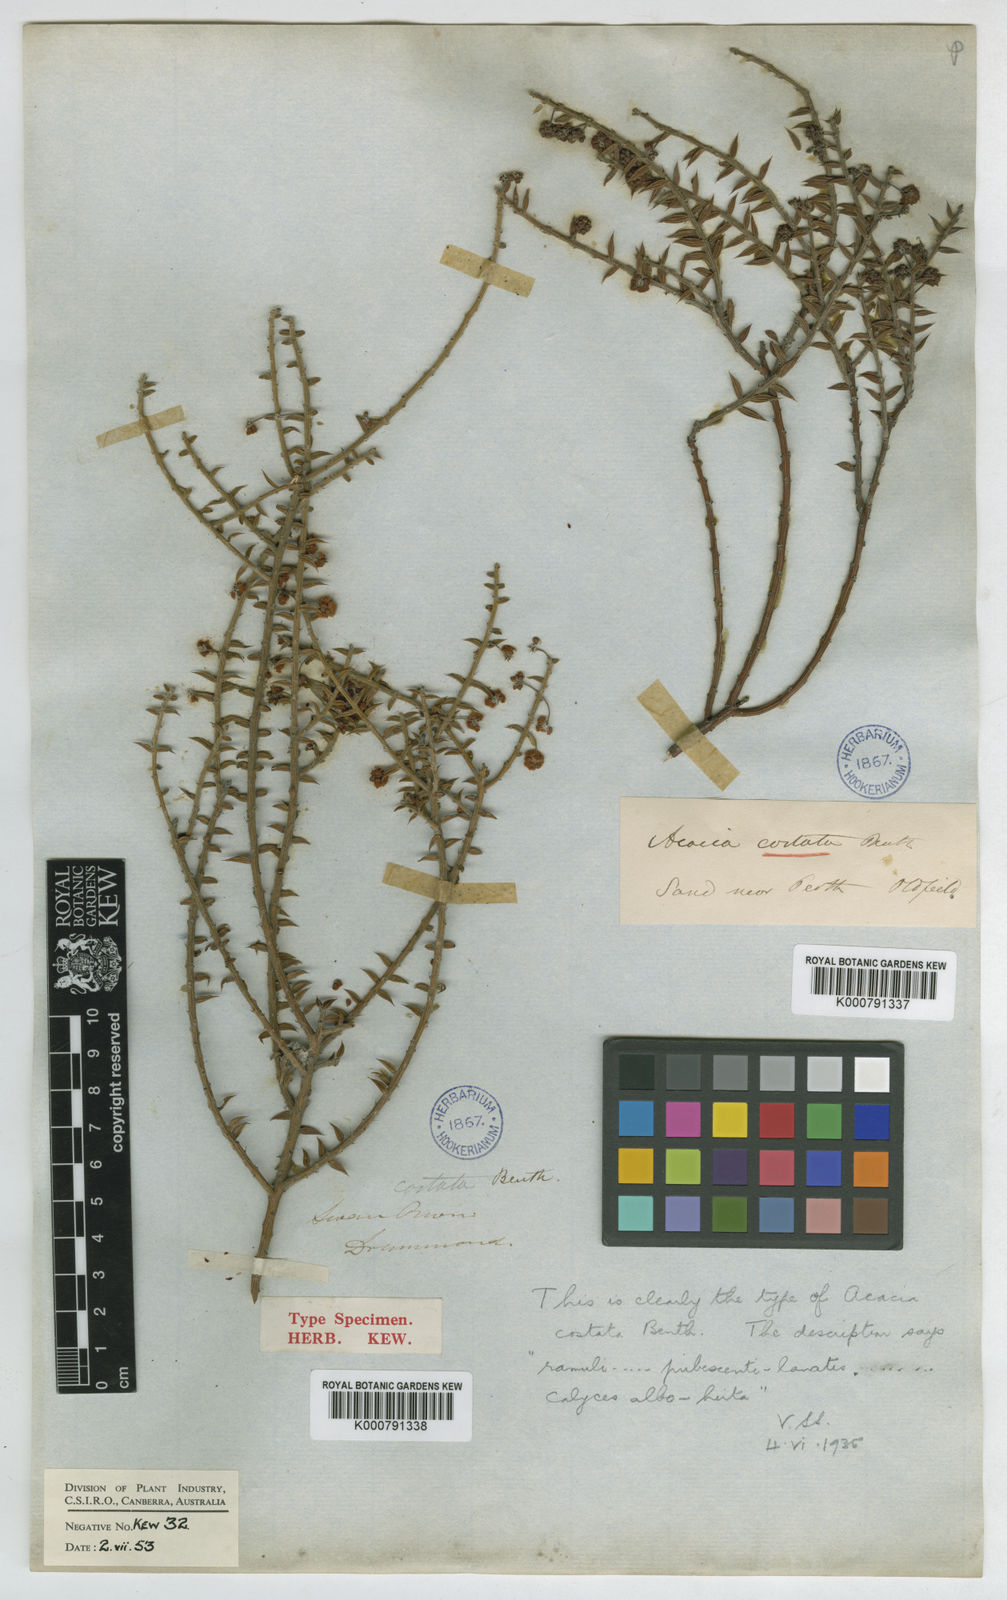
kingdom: Plantae
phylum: Tracheophyta
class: Magnoliopsida
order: Fabales
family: Fabaceae
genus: Acacia
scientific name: Acacia costata
